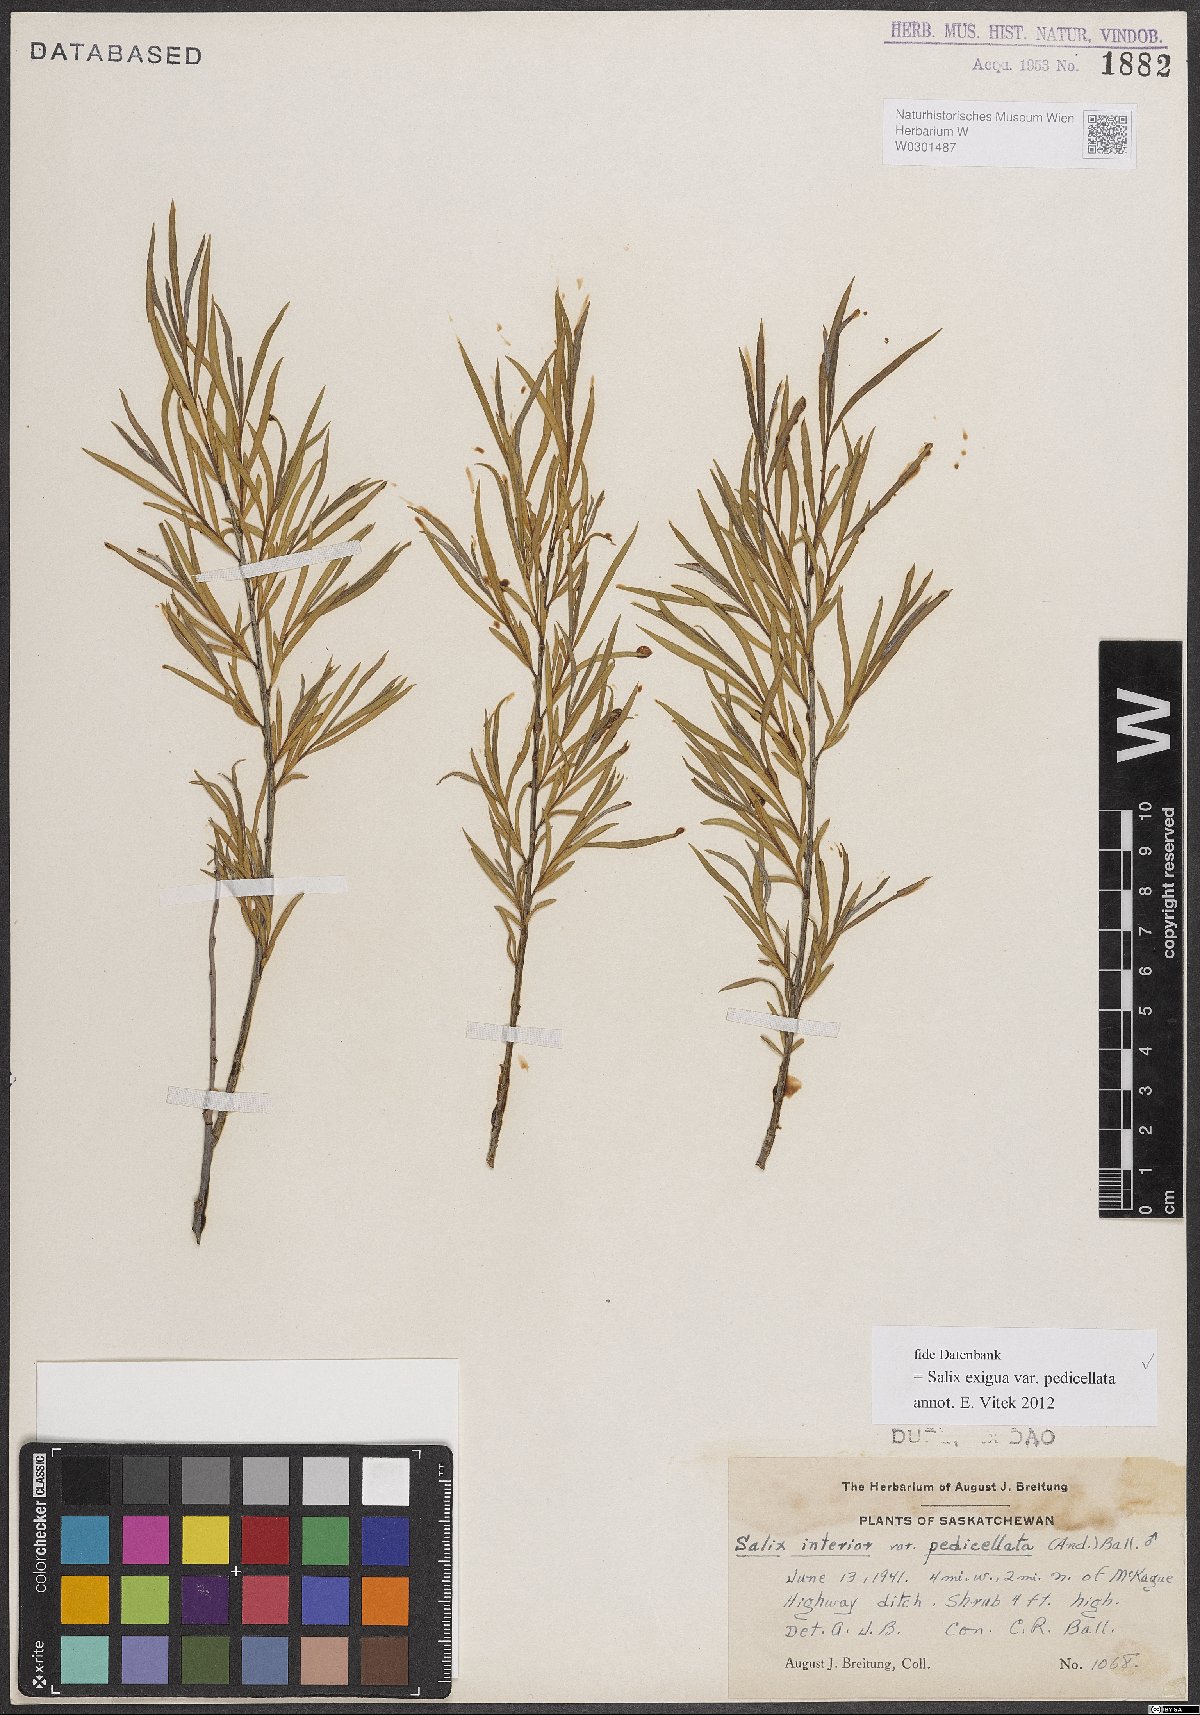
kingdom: Plantae
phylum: Tracheophyta
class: Magnoliopsida
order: Malpighiales
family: Salicaceae
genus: Salix
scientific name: Salix interior
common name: Sandbar willow
